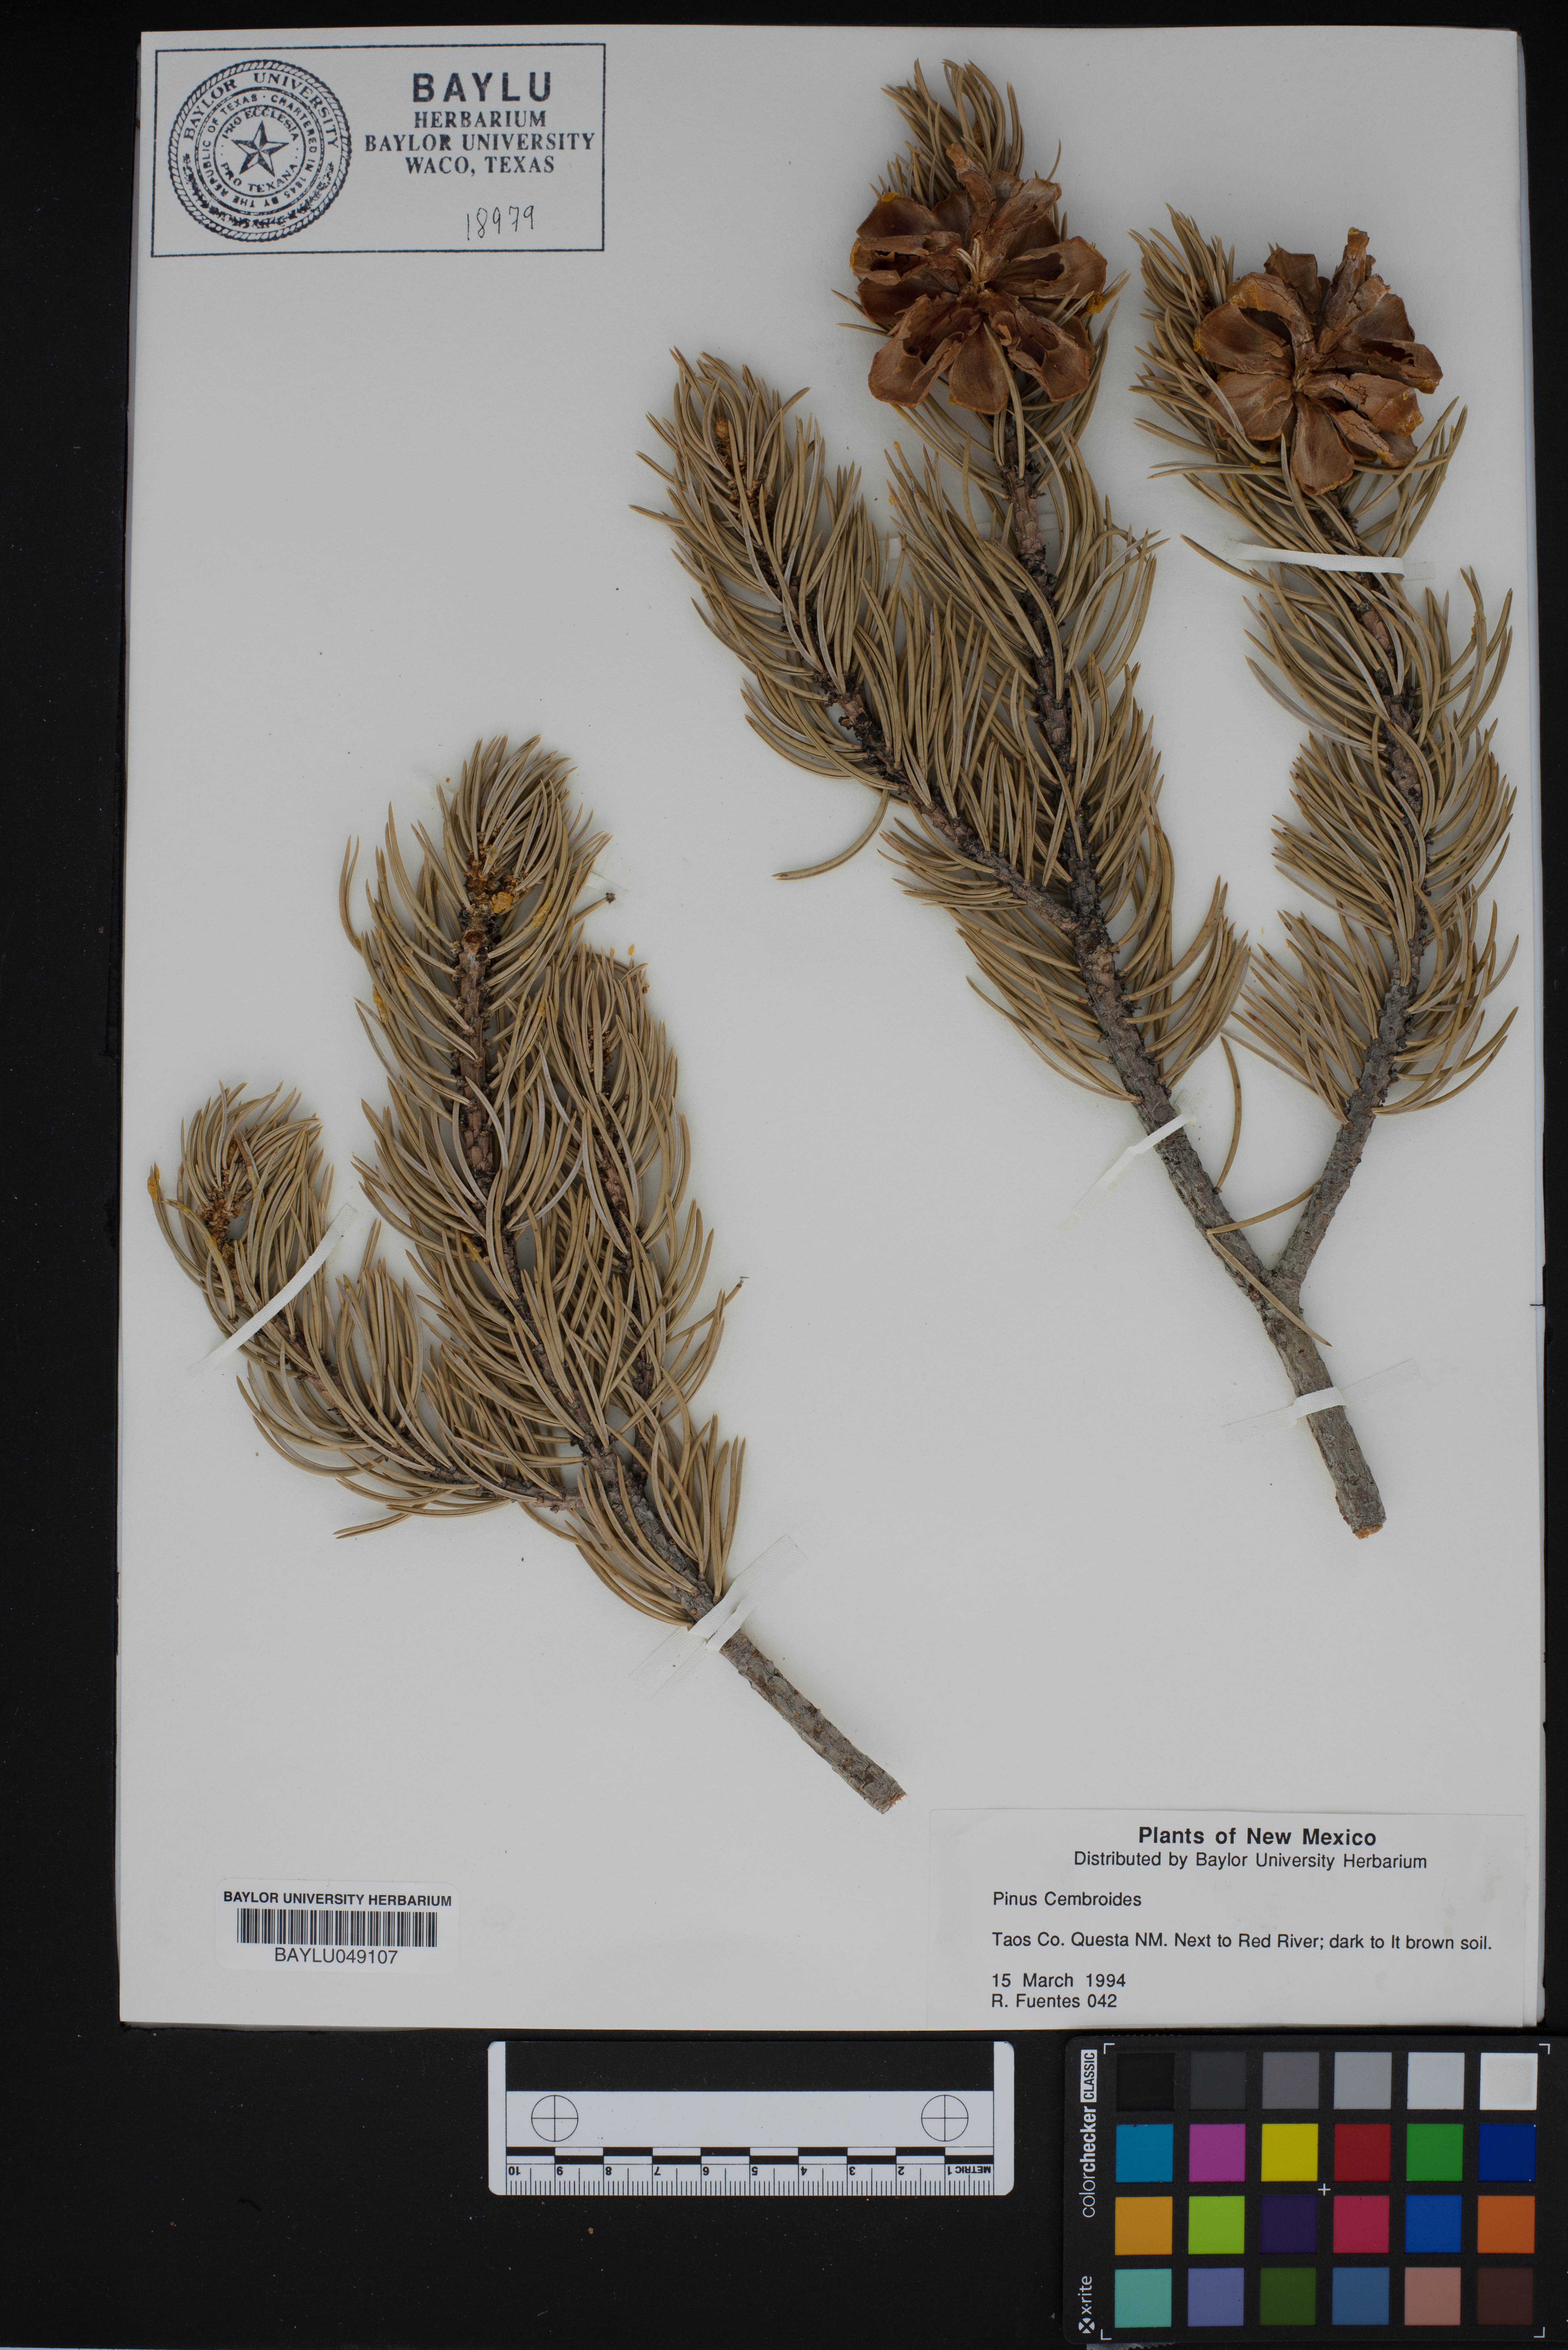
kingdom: Plantae
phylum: Tracheophyta
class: Pinopsida
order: Pinales
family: Pinaceae
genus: Pinus
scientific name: Pinus cembroides
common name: Mexican nut pine
